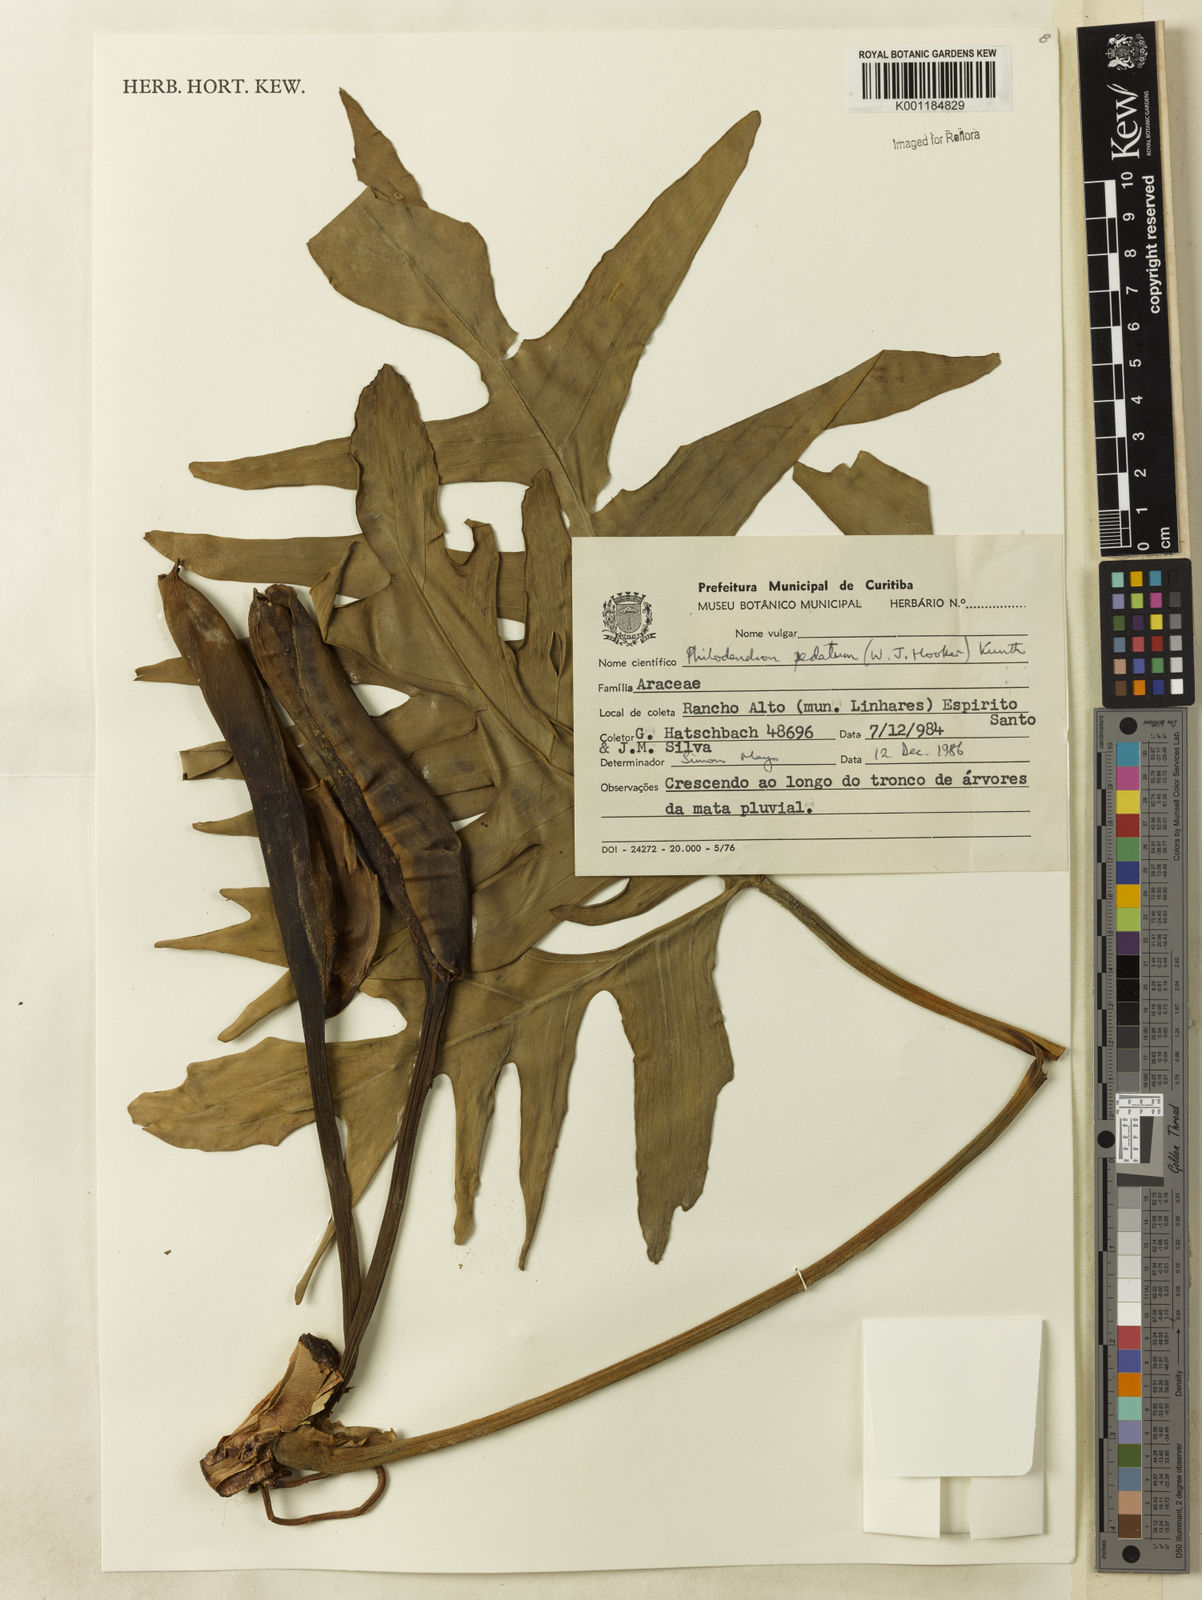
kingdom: Plantae
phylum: Tracheophyta
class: Liliopsida
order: Alismatales
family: Araceae
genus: Philodendron
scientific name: Philodendron pedatum
